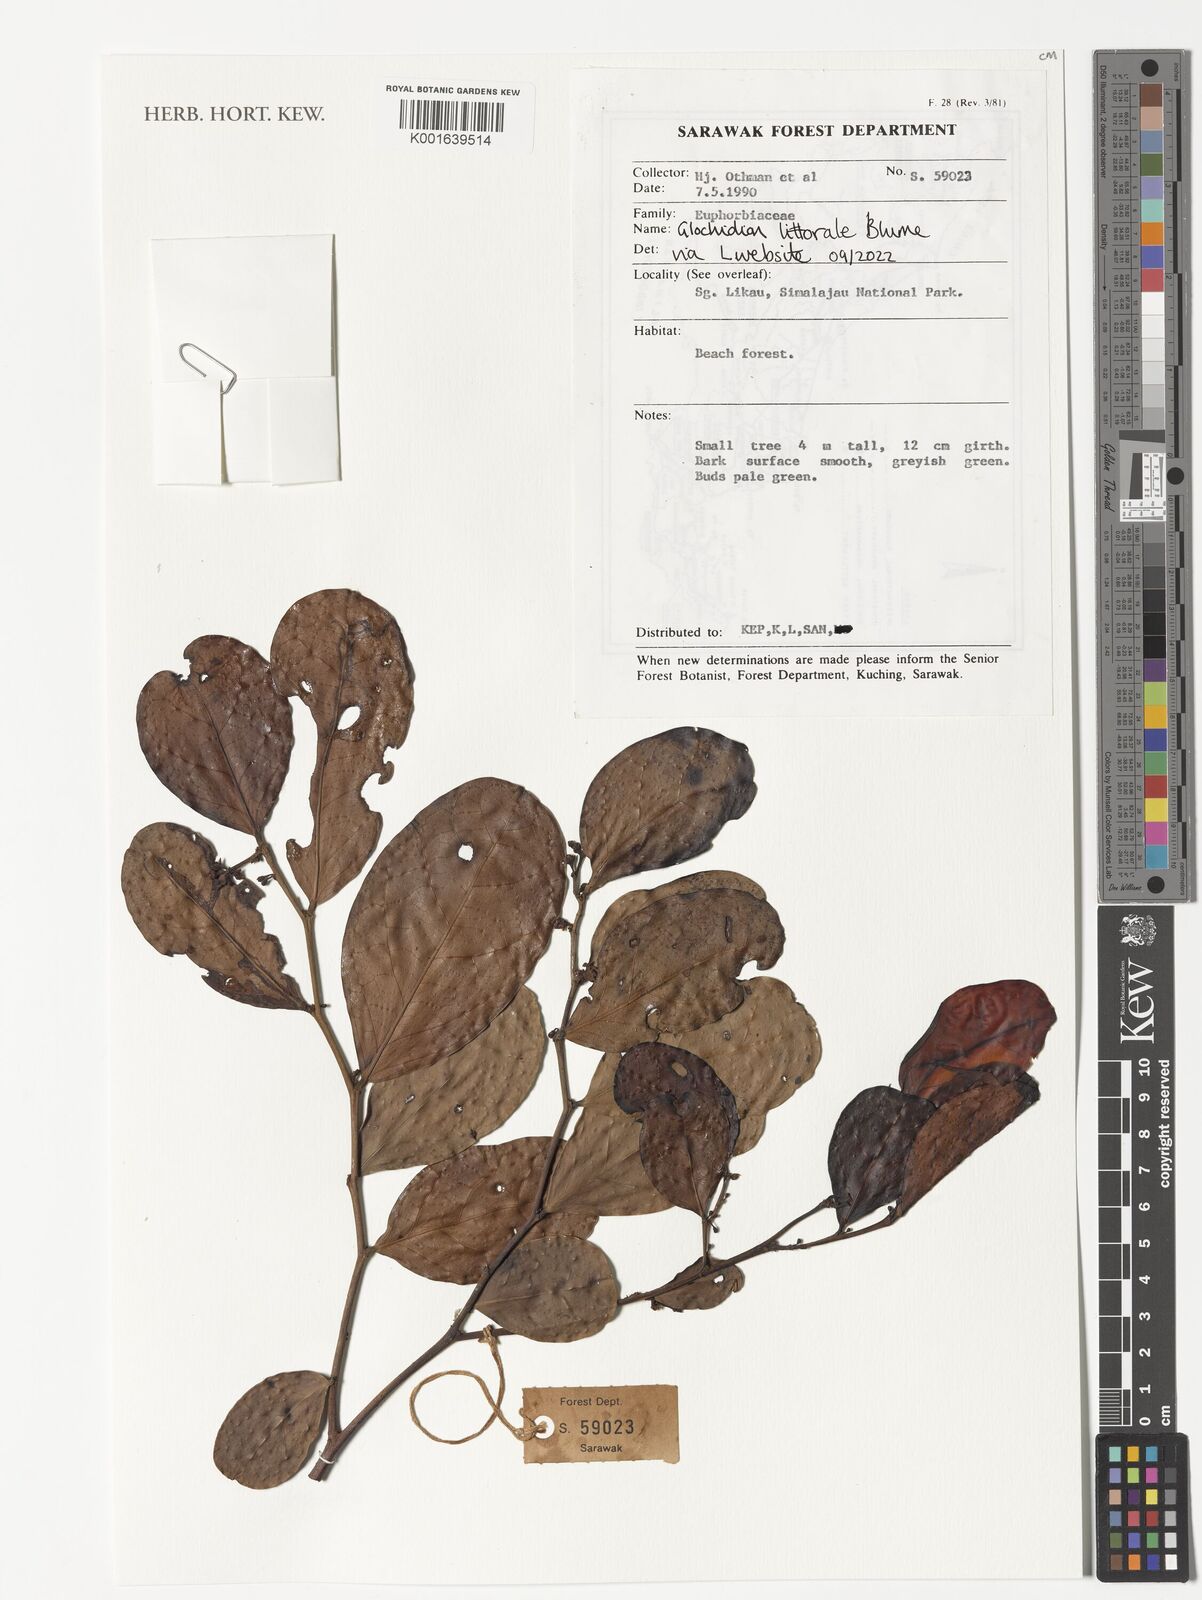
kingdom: Plantae
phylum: Tracheophyta
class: Magnoliopsida
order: Malpighiales
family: Phyllanthaceae
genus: Glochidion
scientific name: Glochidion littorale
